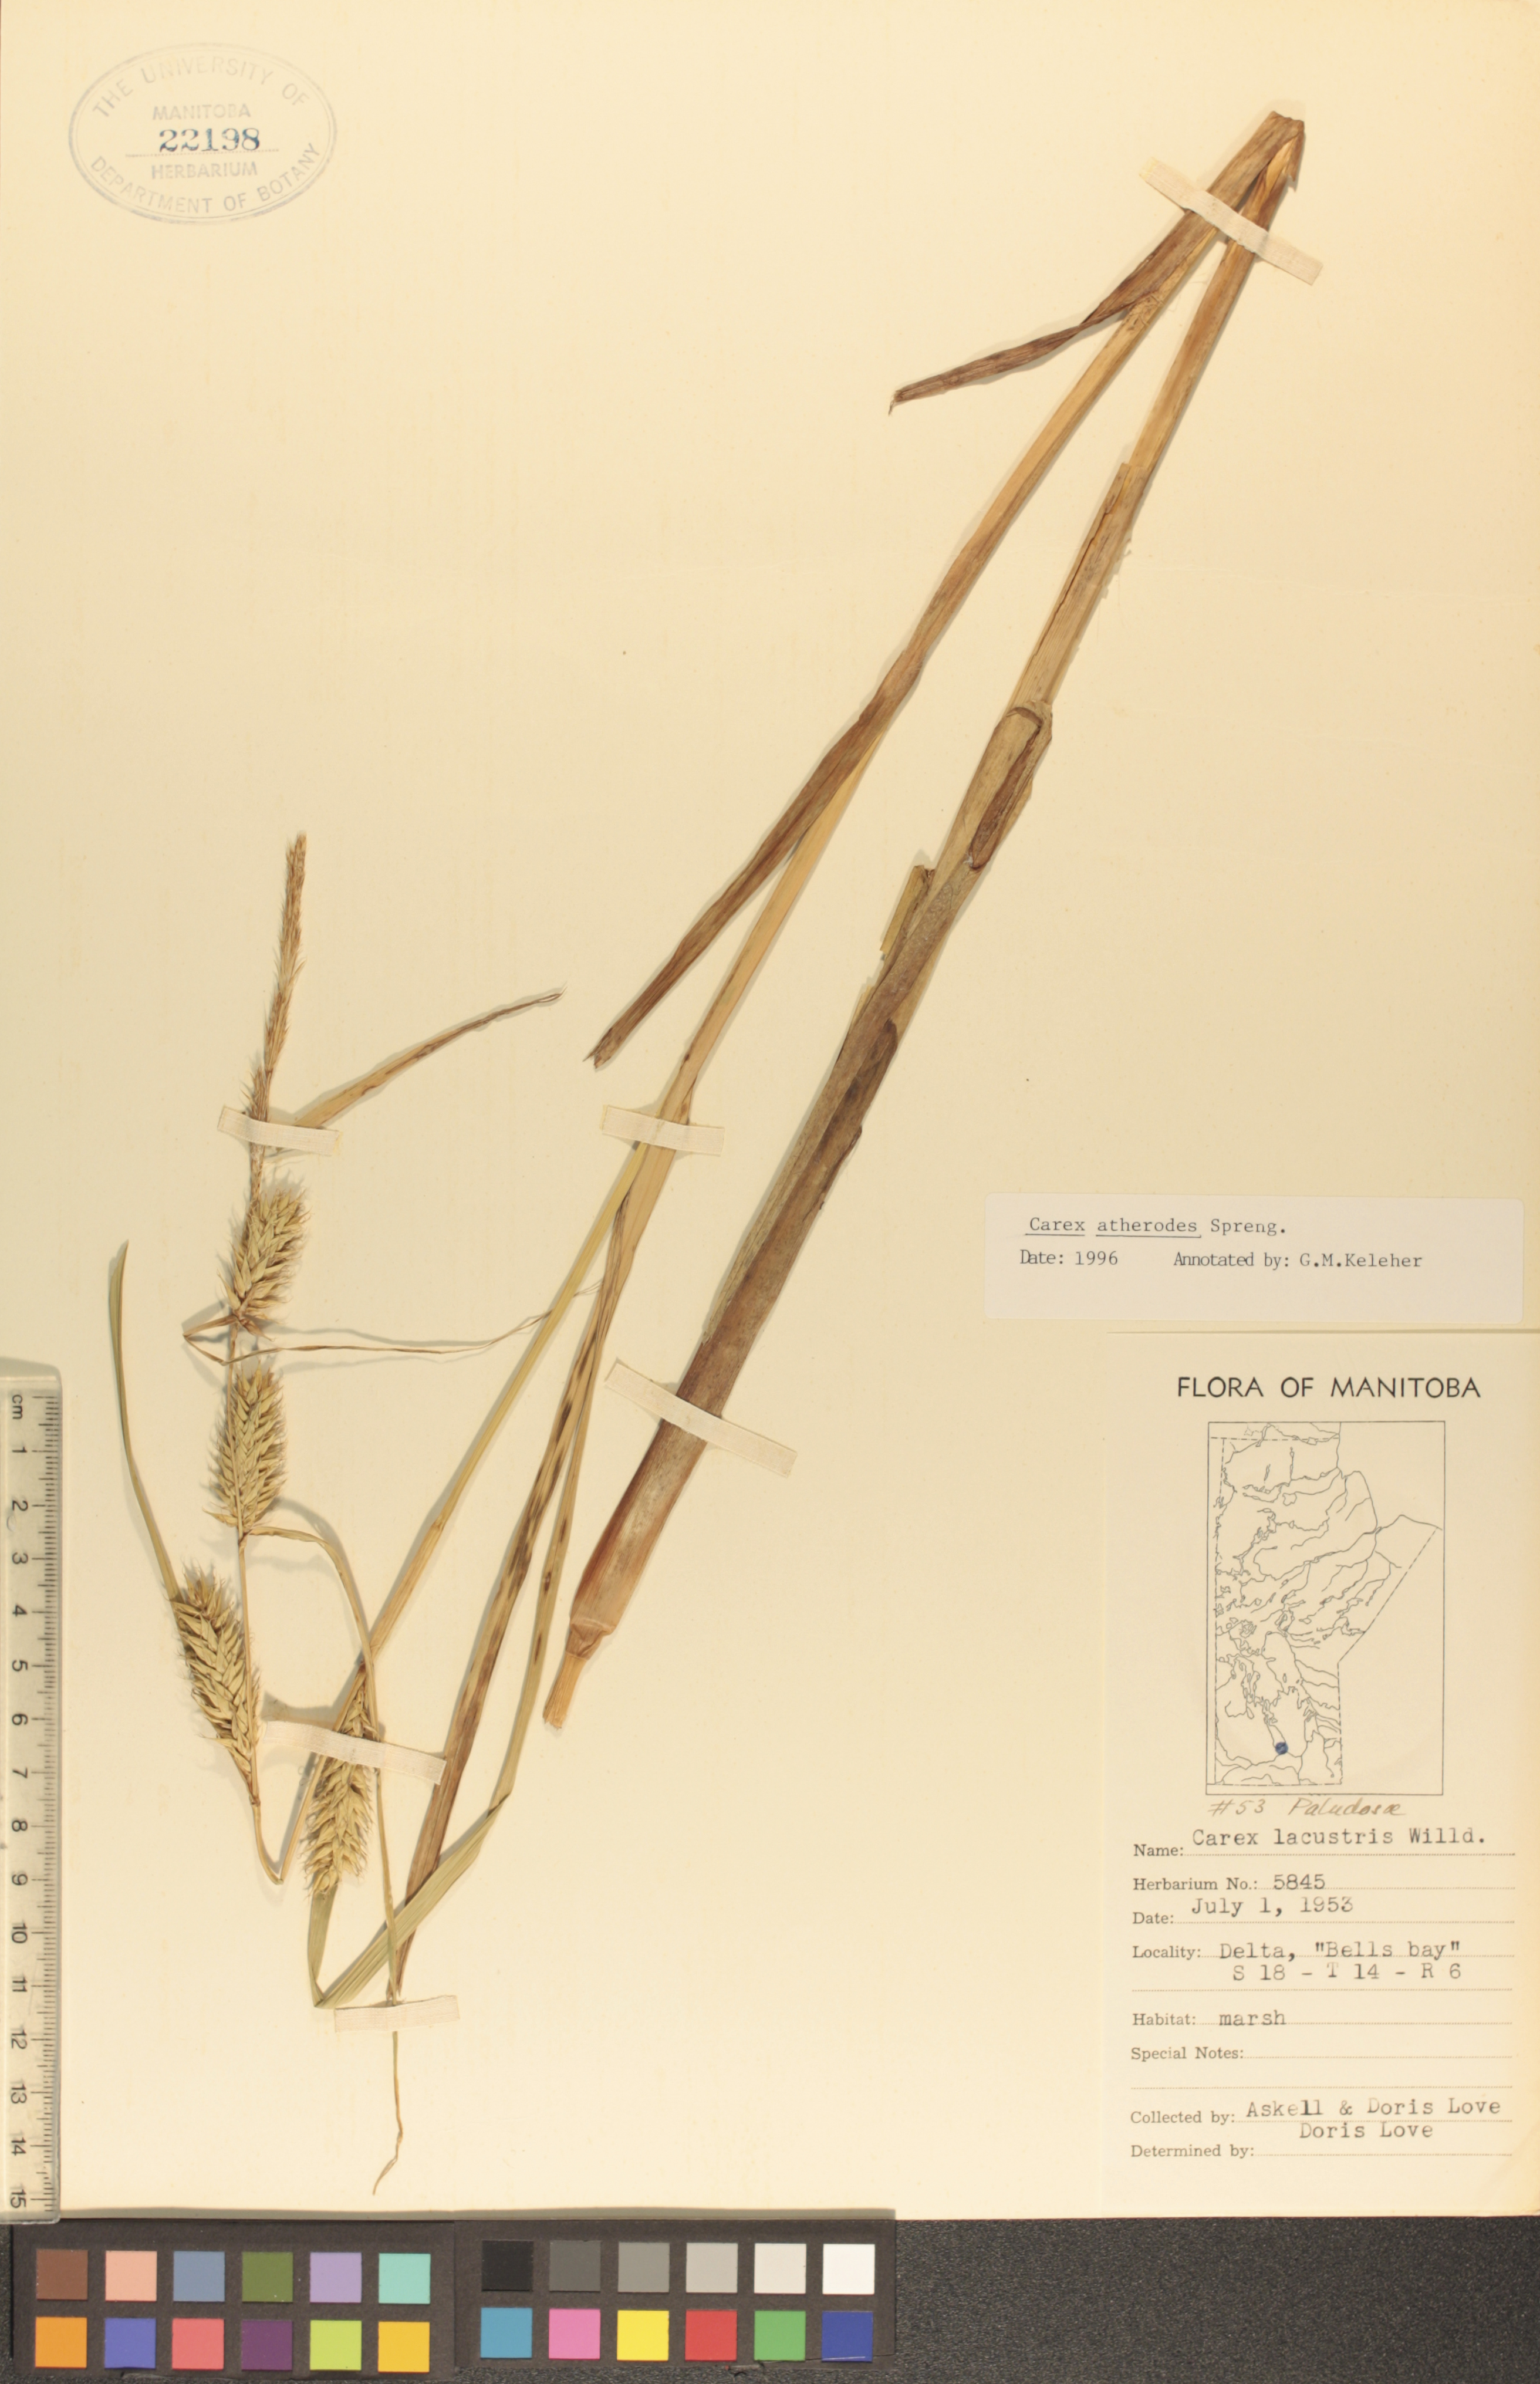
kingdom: Plantae
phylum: Tracheophyta
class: Liliopsida
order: Poales
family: Cyperaceae
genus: Carex
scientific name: Carex atherodes
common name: Wheat sedge
